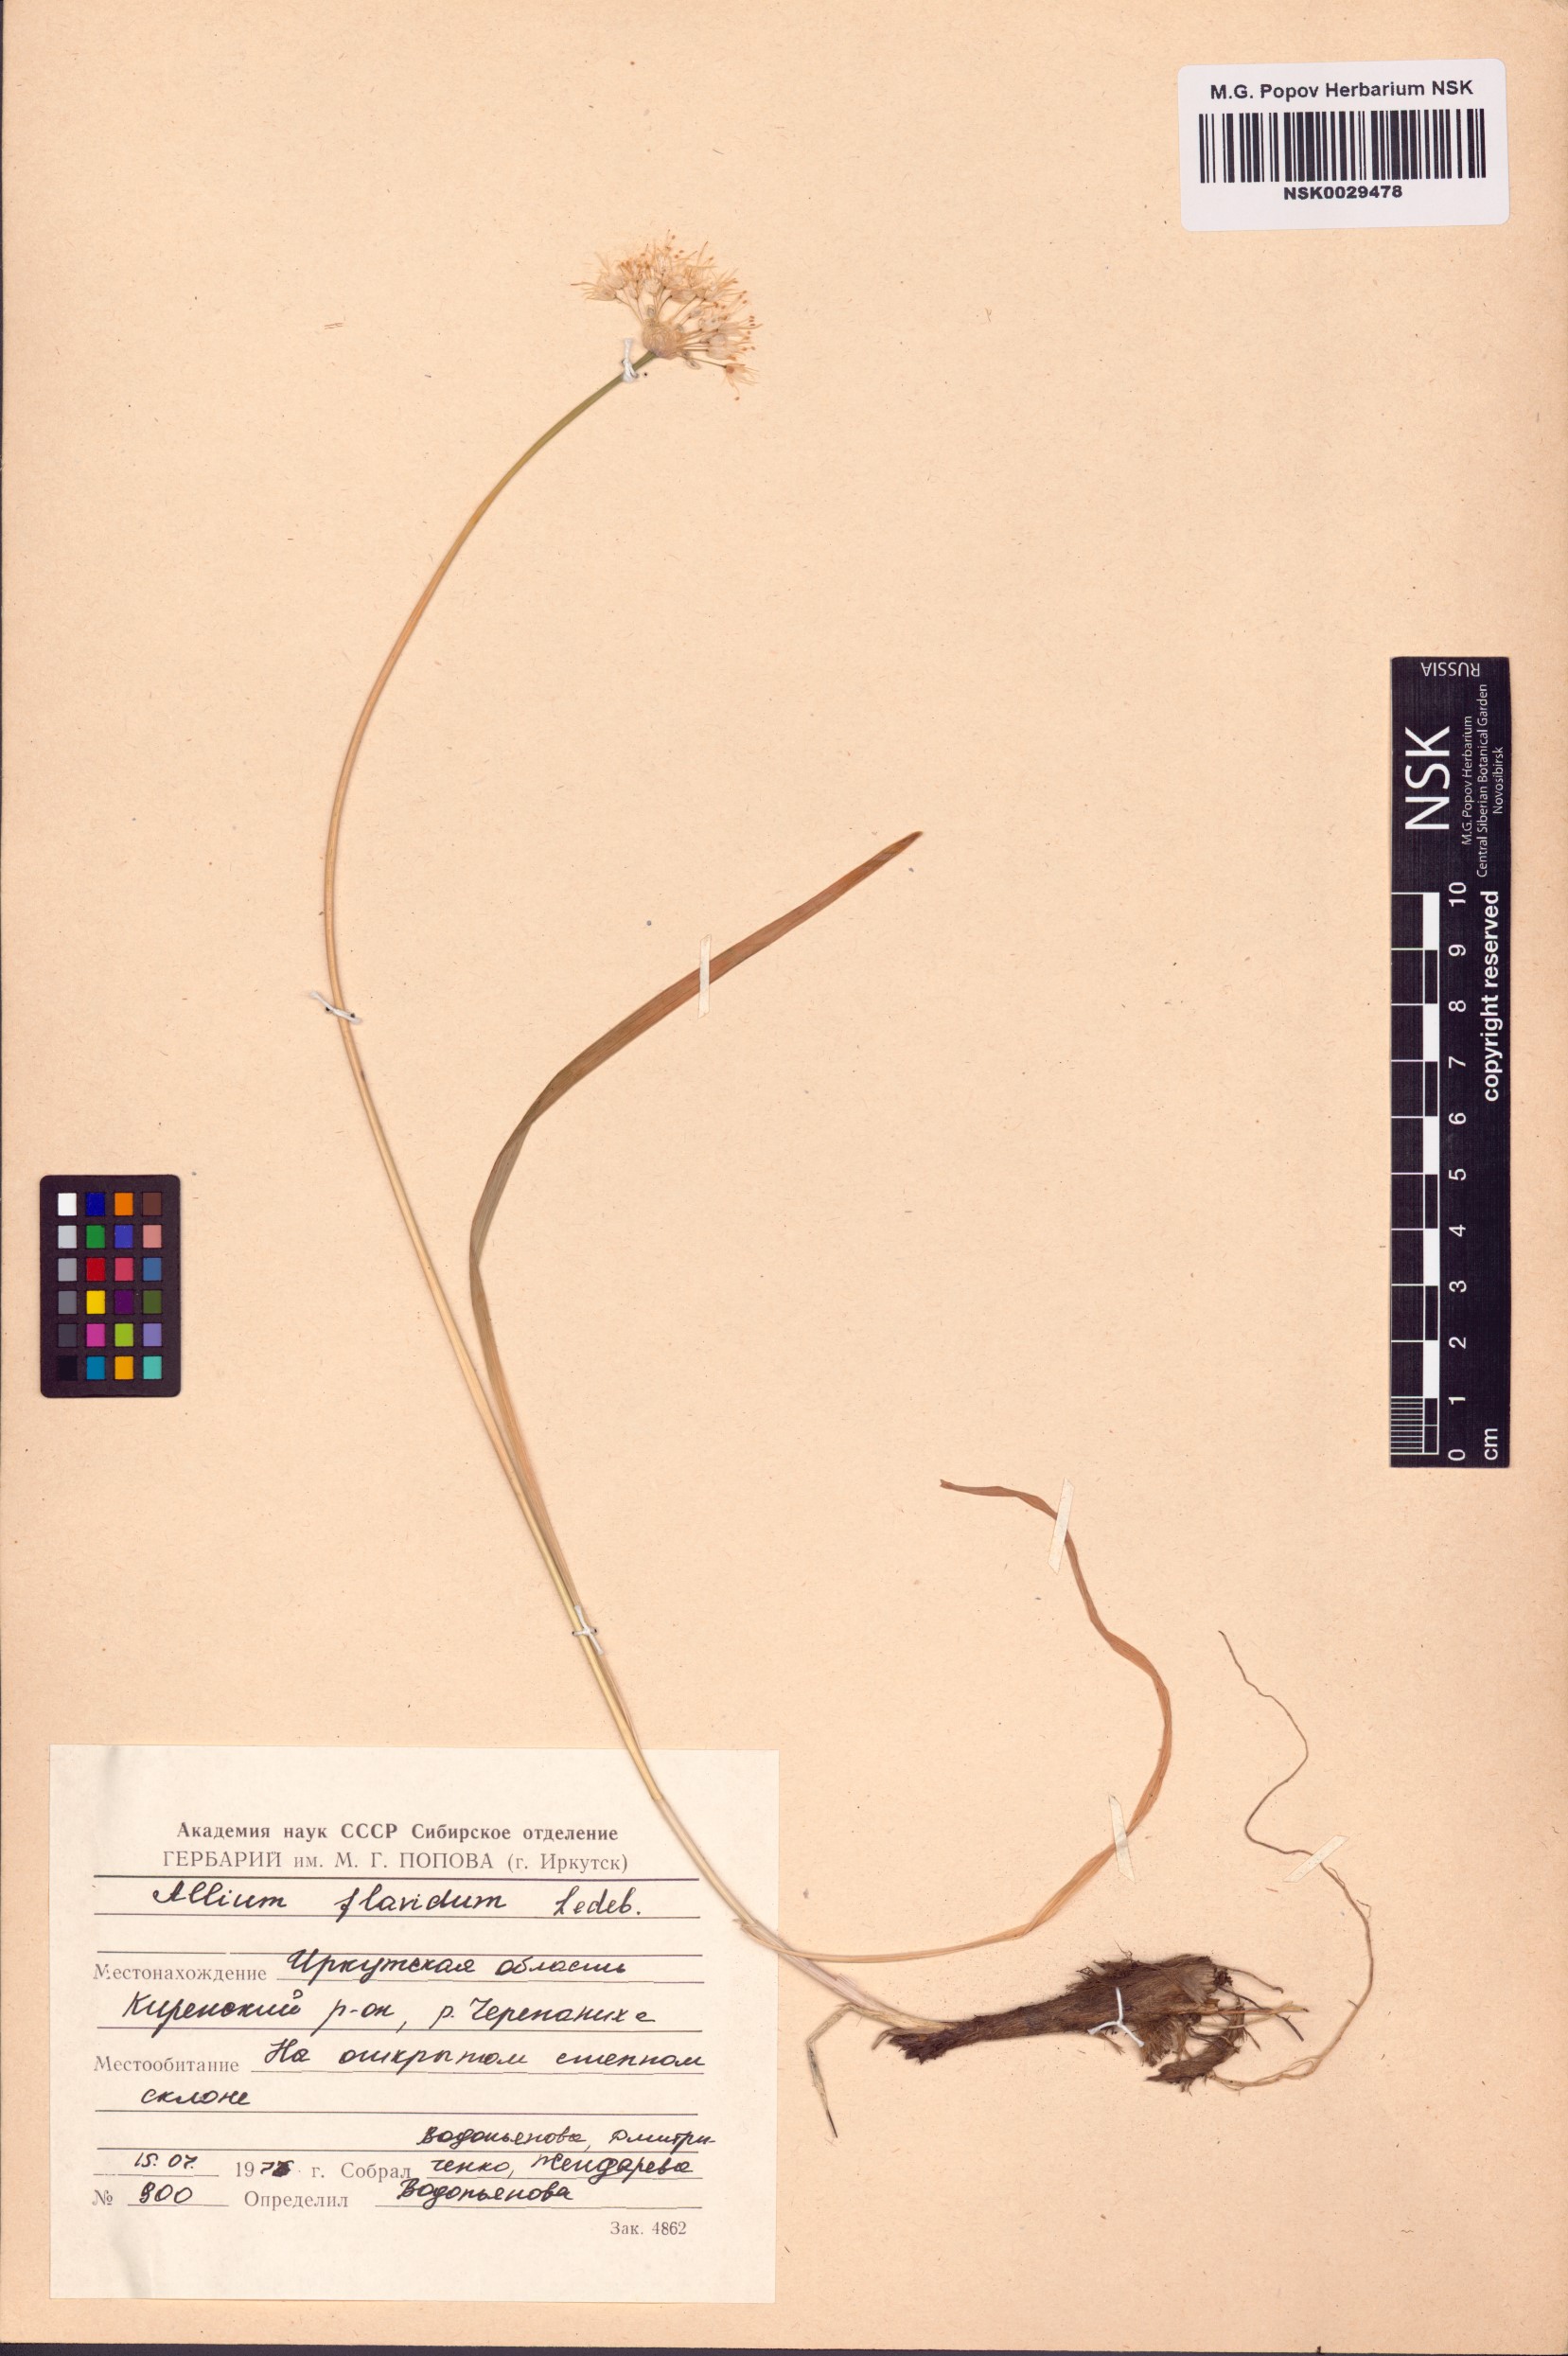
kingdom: Plantae
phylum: Tracheophyta
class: Liliopsida
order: Asparagales
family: Amaryllidaceae
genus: Allium
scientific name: Allium flavidum
